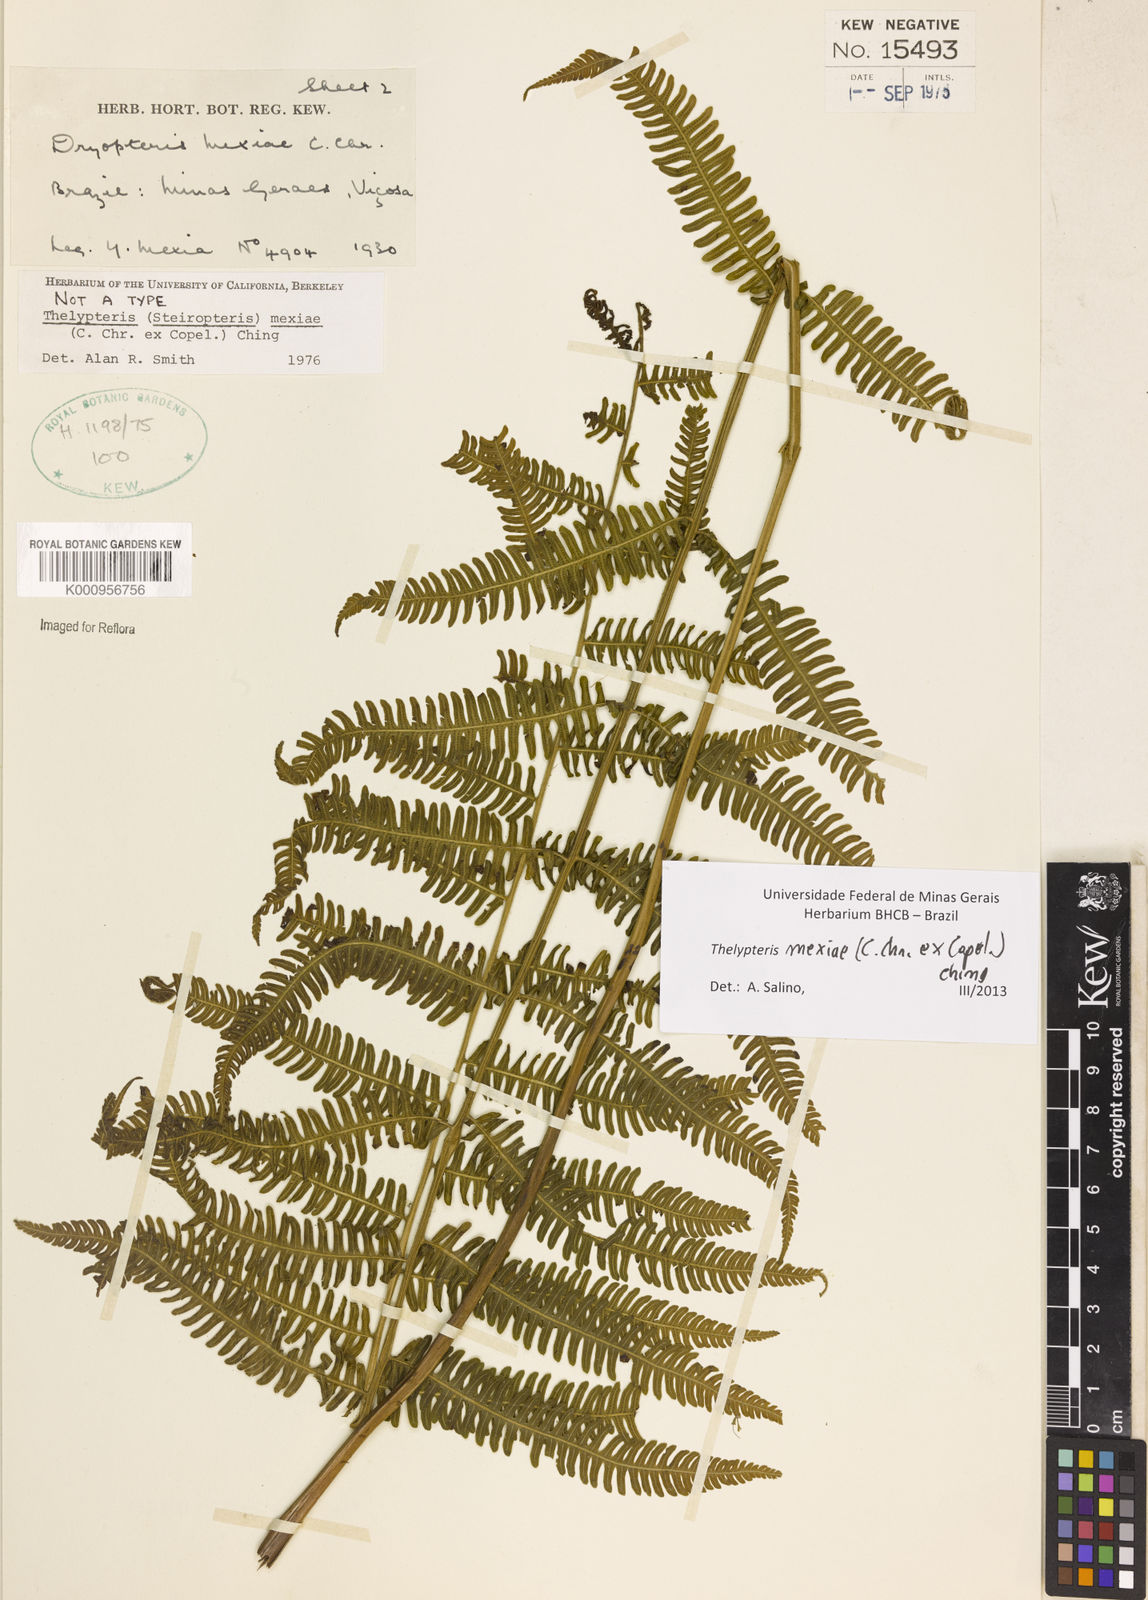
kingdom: Plantae
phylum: Tracheophyta
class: Polypodiopsida
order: Polypodiales
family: Thelypteridaceae
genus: Steiropteris
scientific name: Steiropteris mexiae
